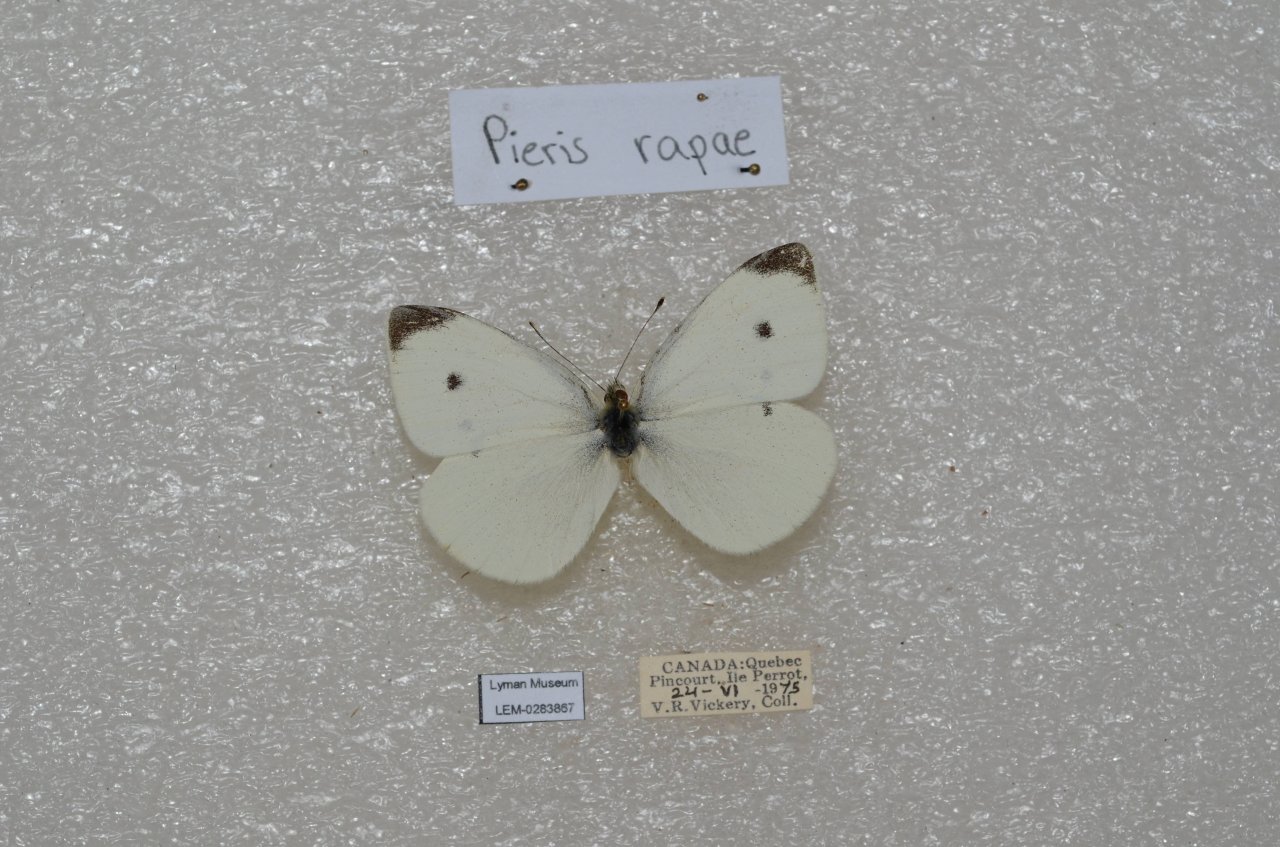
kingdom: Animalia
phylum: Arthropoda
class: Insecta
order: Lepidoptera
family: Pieridae
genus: Pieris
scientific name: Pieris rapae
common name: Cabbage White
